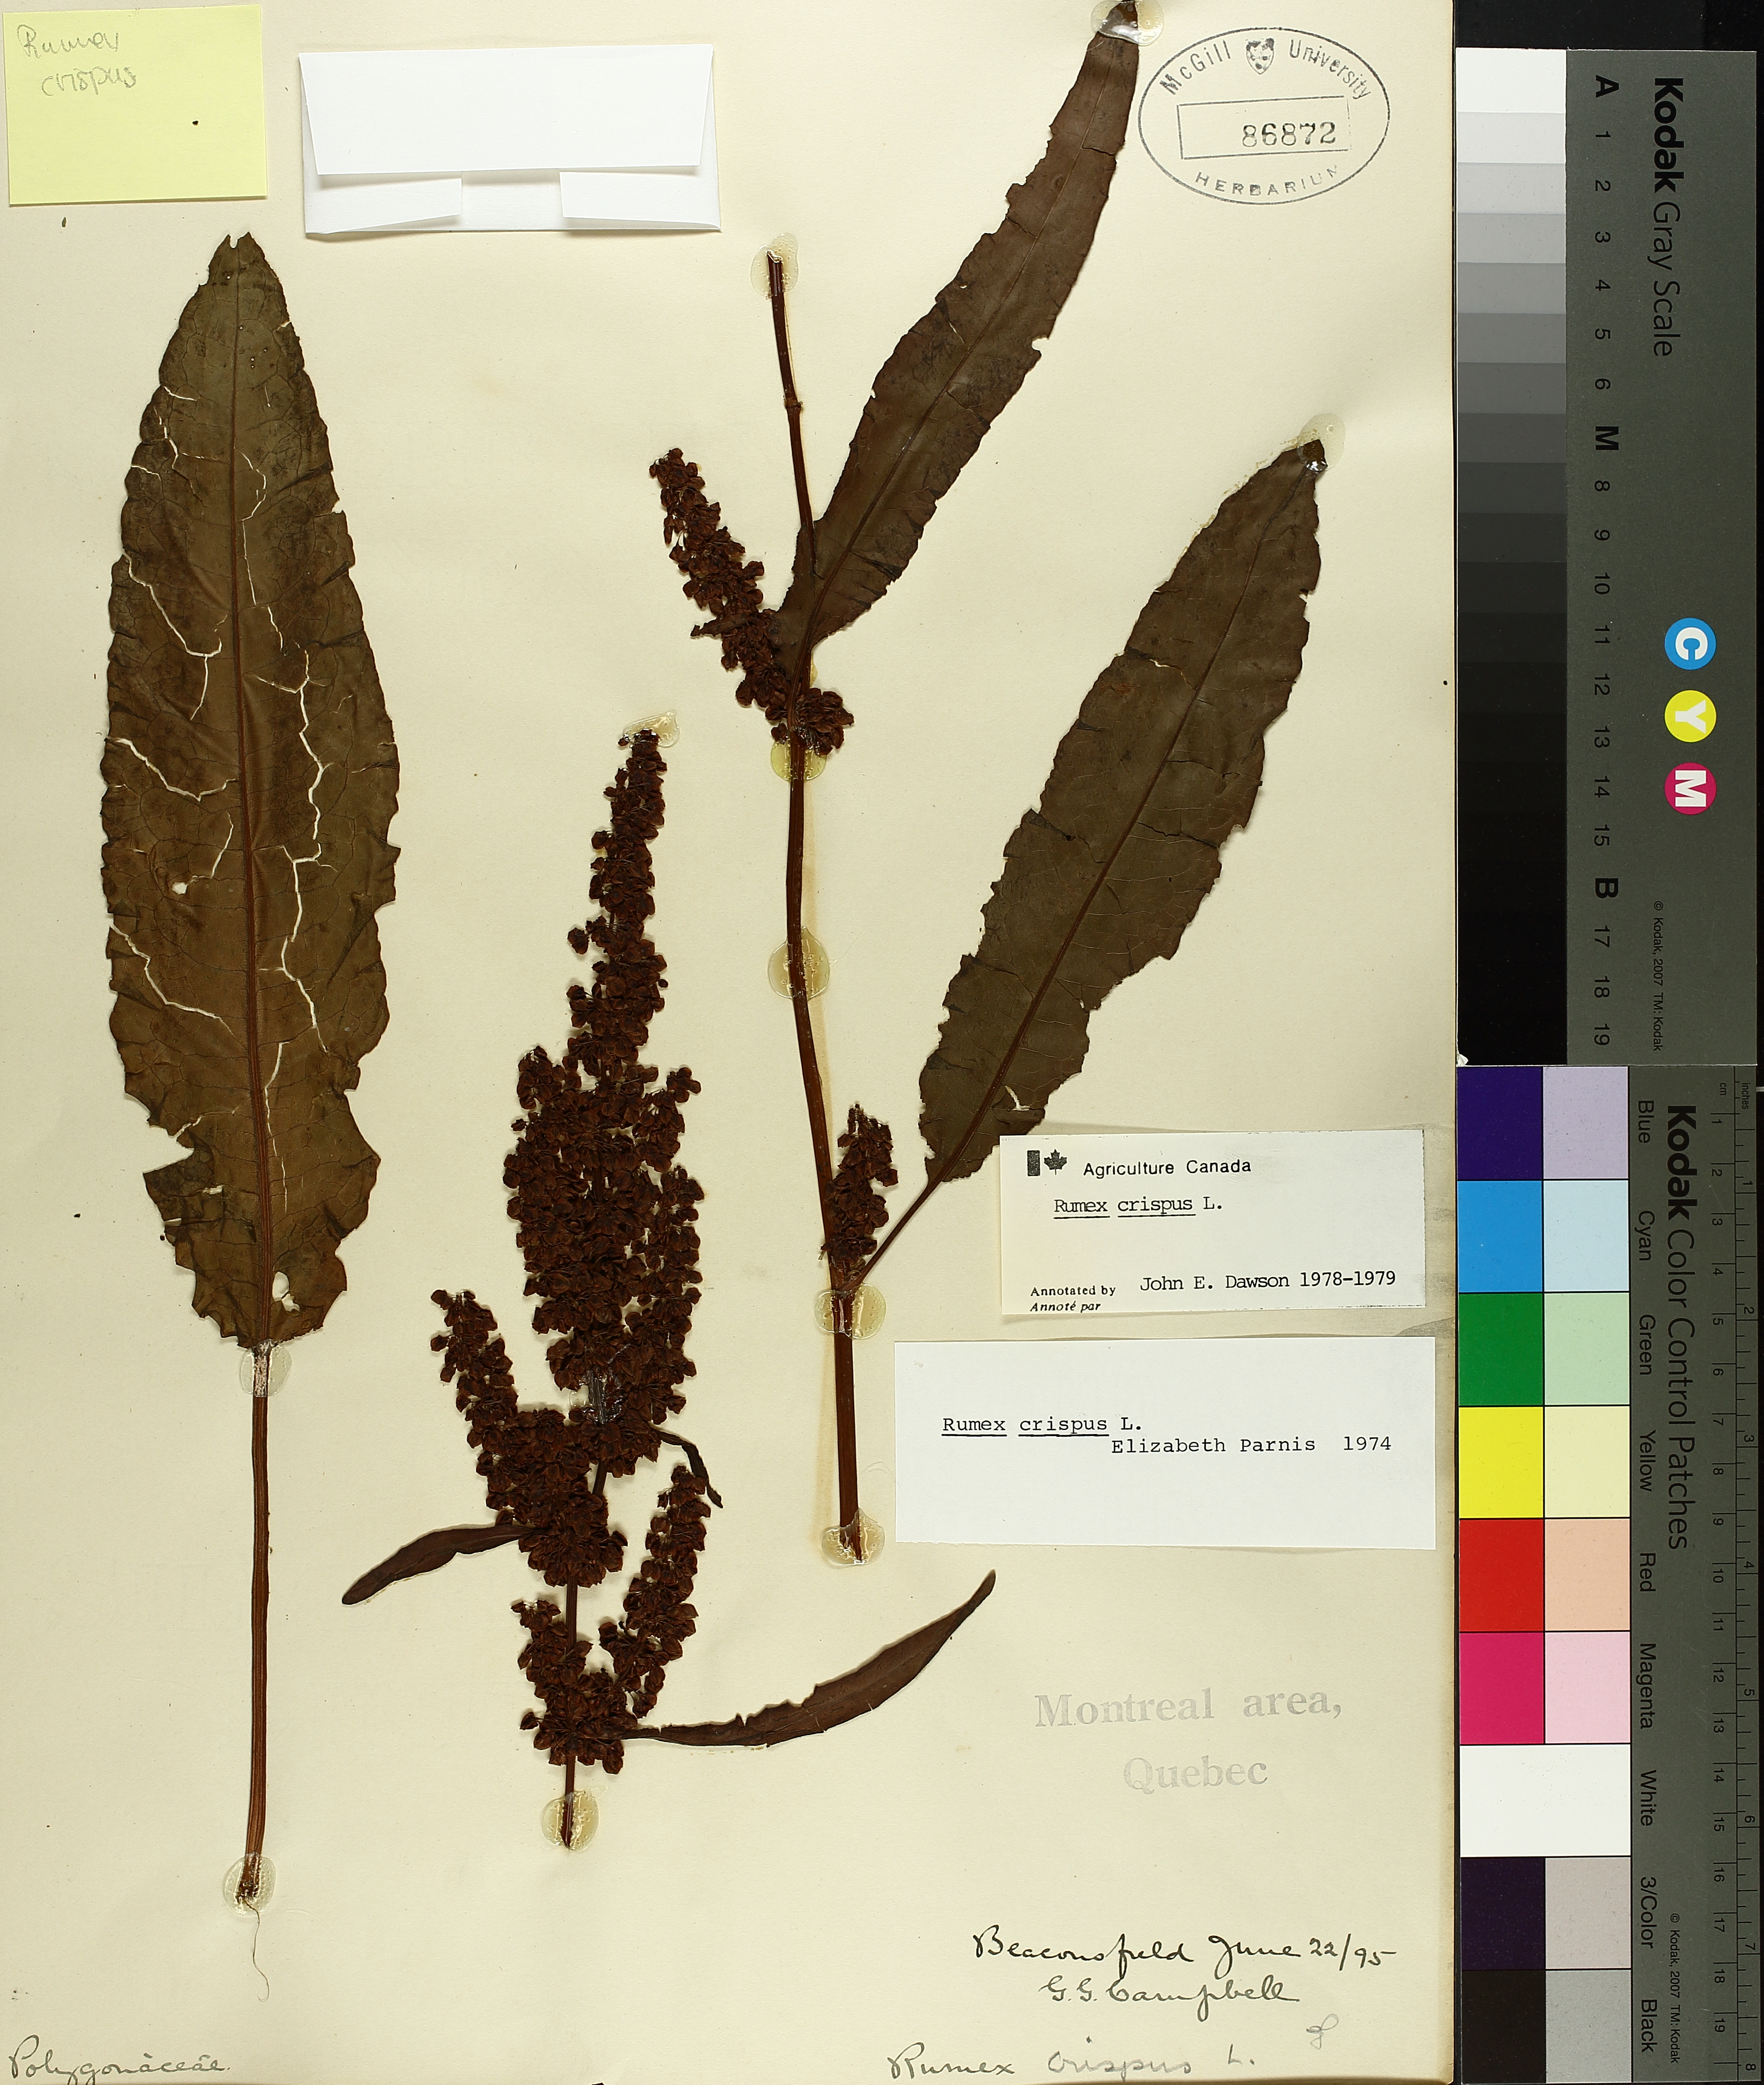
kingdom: Plantae
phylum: Tracheophyta
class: Magnoliopsida
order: Caryophyllales
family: Polygonaceae
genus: Rumex
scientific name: Rumex crispus
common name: Curled dock
